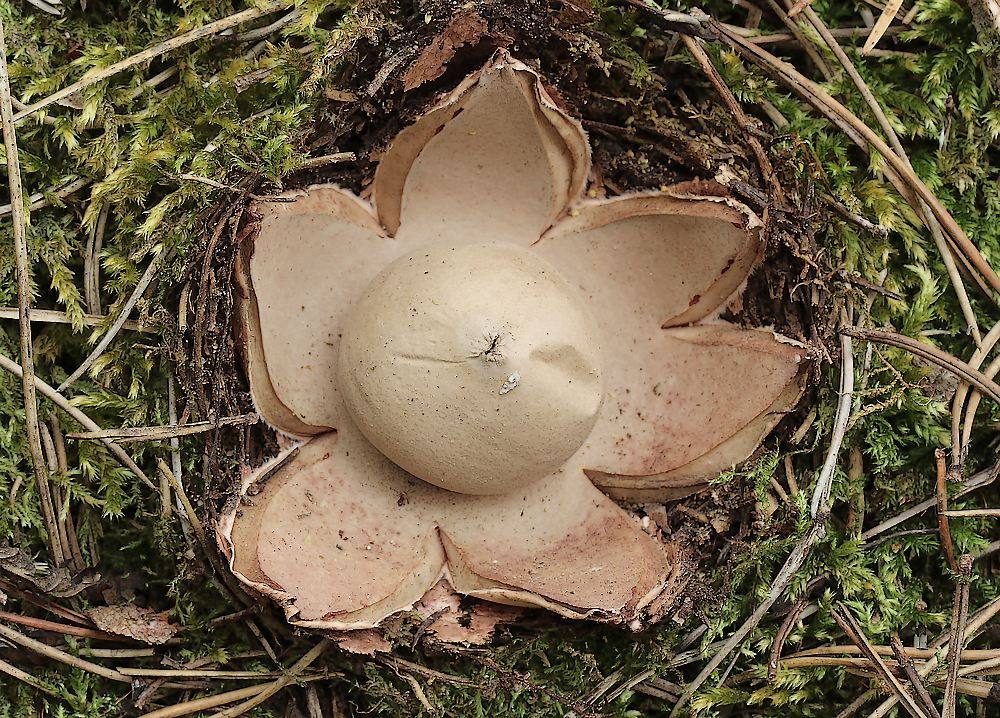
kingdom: Fungi
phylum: Basidiomycota
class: Agaricomycetes
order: Geastrales
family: Geastraceae
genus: Geastrum
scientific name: Geastrum rufescens
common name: kødfarvet stjernebold
